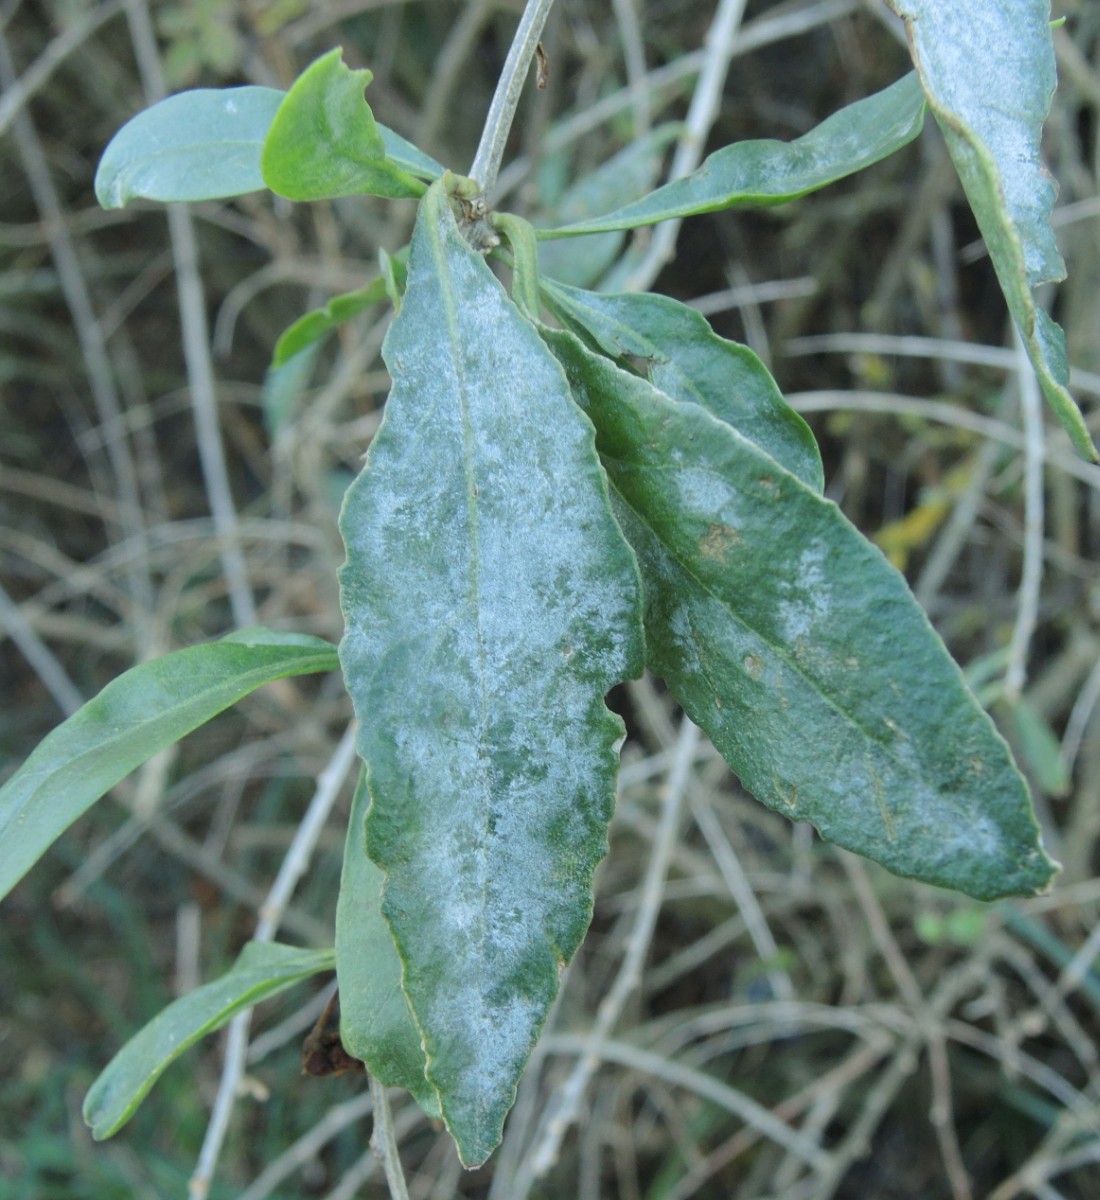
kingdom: Fungi
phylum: Ascomycota
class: Leotiomycetes
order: Helotiales
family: Erysiphaceae
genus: Erysiphe
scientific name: Erysiphe mougeotii
